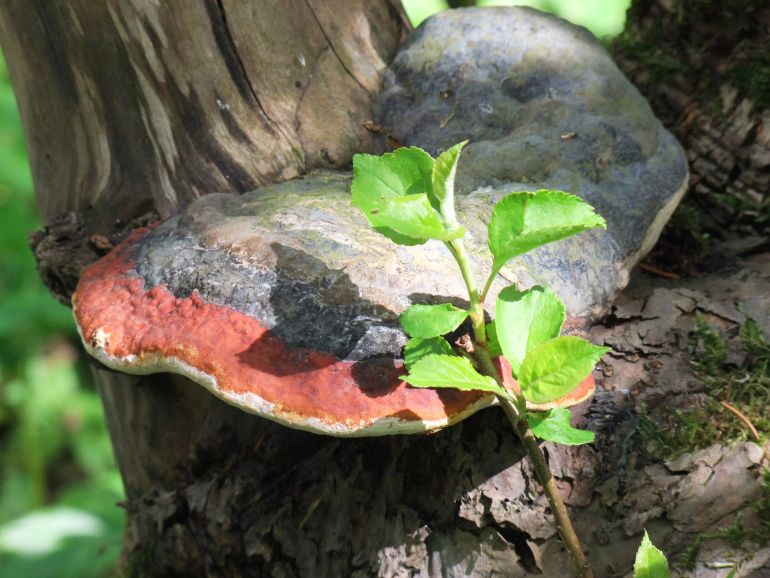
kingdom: Fungi
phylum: Basidiomycota
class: Agaricomycetes
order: Polyporales
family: Fomitopsidaceae
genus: Fomitopsis
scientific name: Fomitopsis pinicola
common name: randbæltet hovporesvamp
